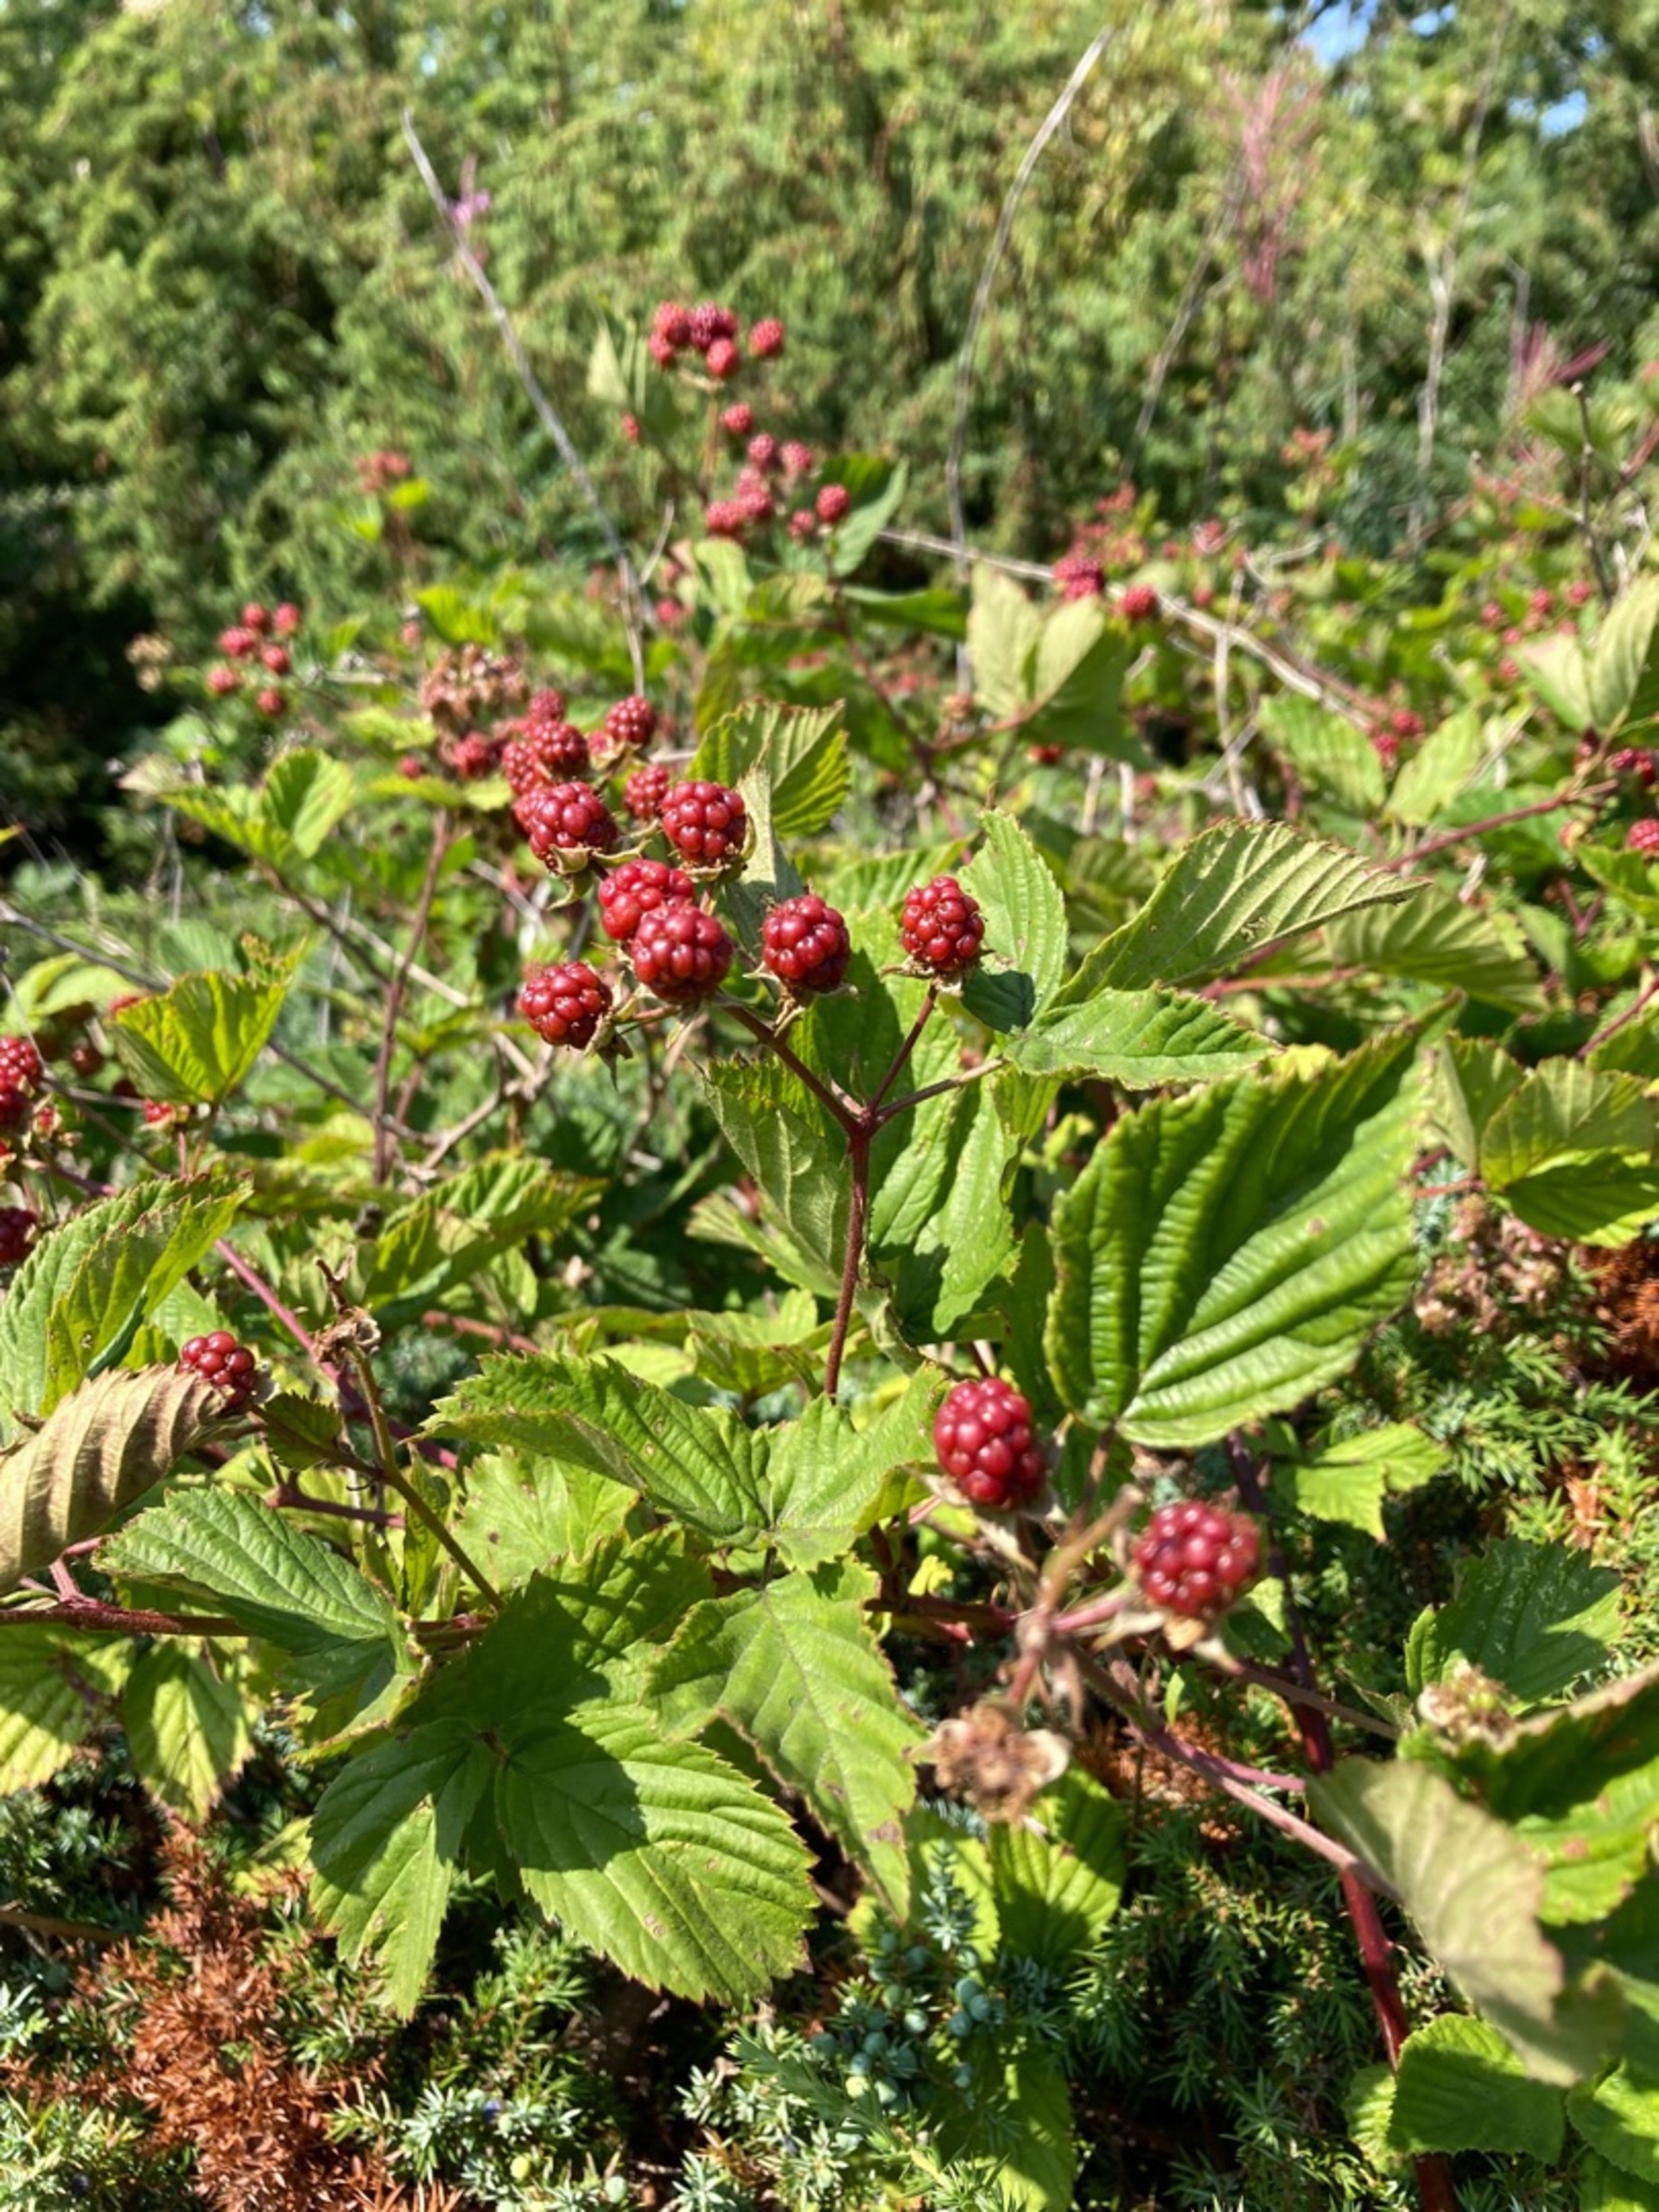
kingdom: Plantae
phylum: Tracheophyta
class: Magnoliopsida
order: Rosales
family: Rosaceae
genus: Rubus
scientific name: Rubus plicatus
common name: Almindelig brombær
